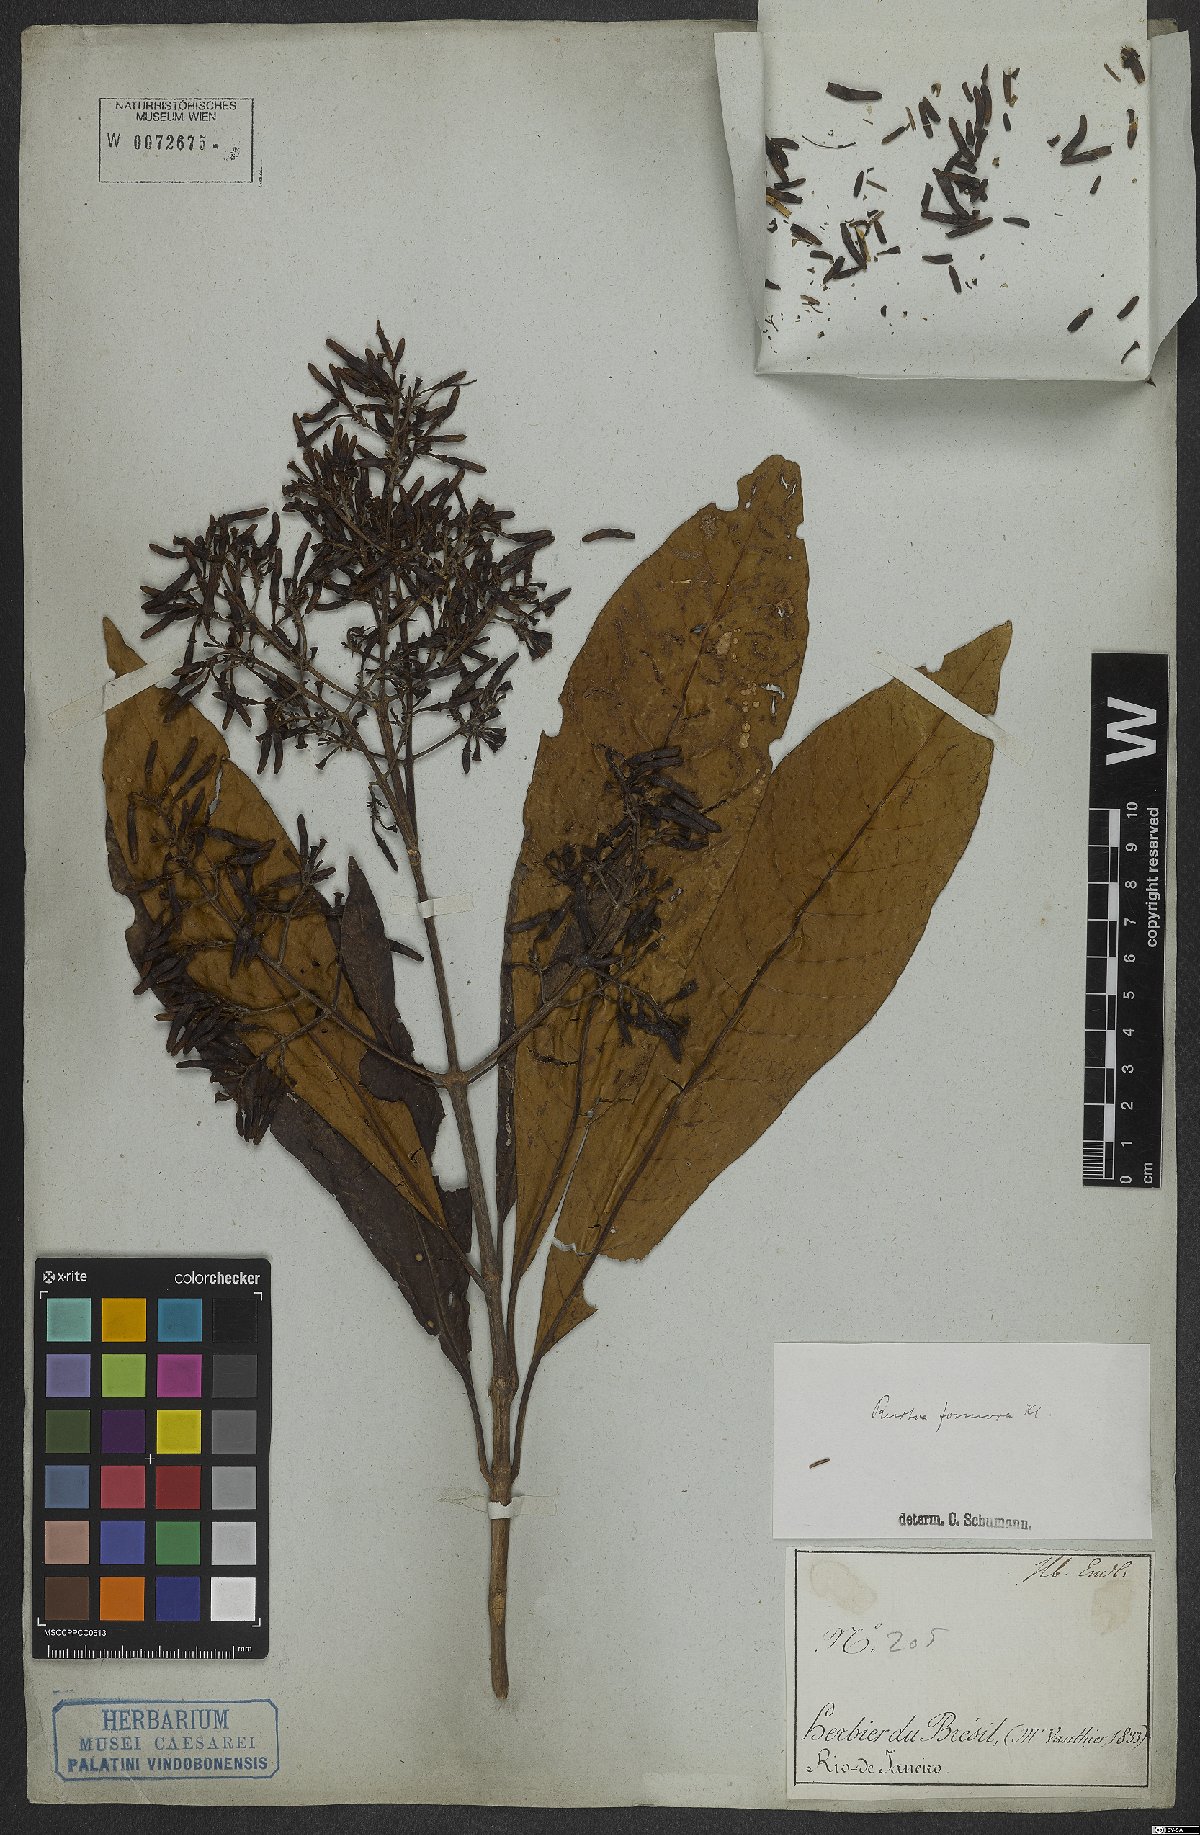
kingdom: Plantae
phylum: Tracheophyta
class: Magnoliopsida
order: Gentianales
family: Rubiaceae
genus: Rustia
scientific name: Rustia formosa
